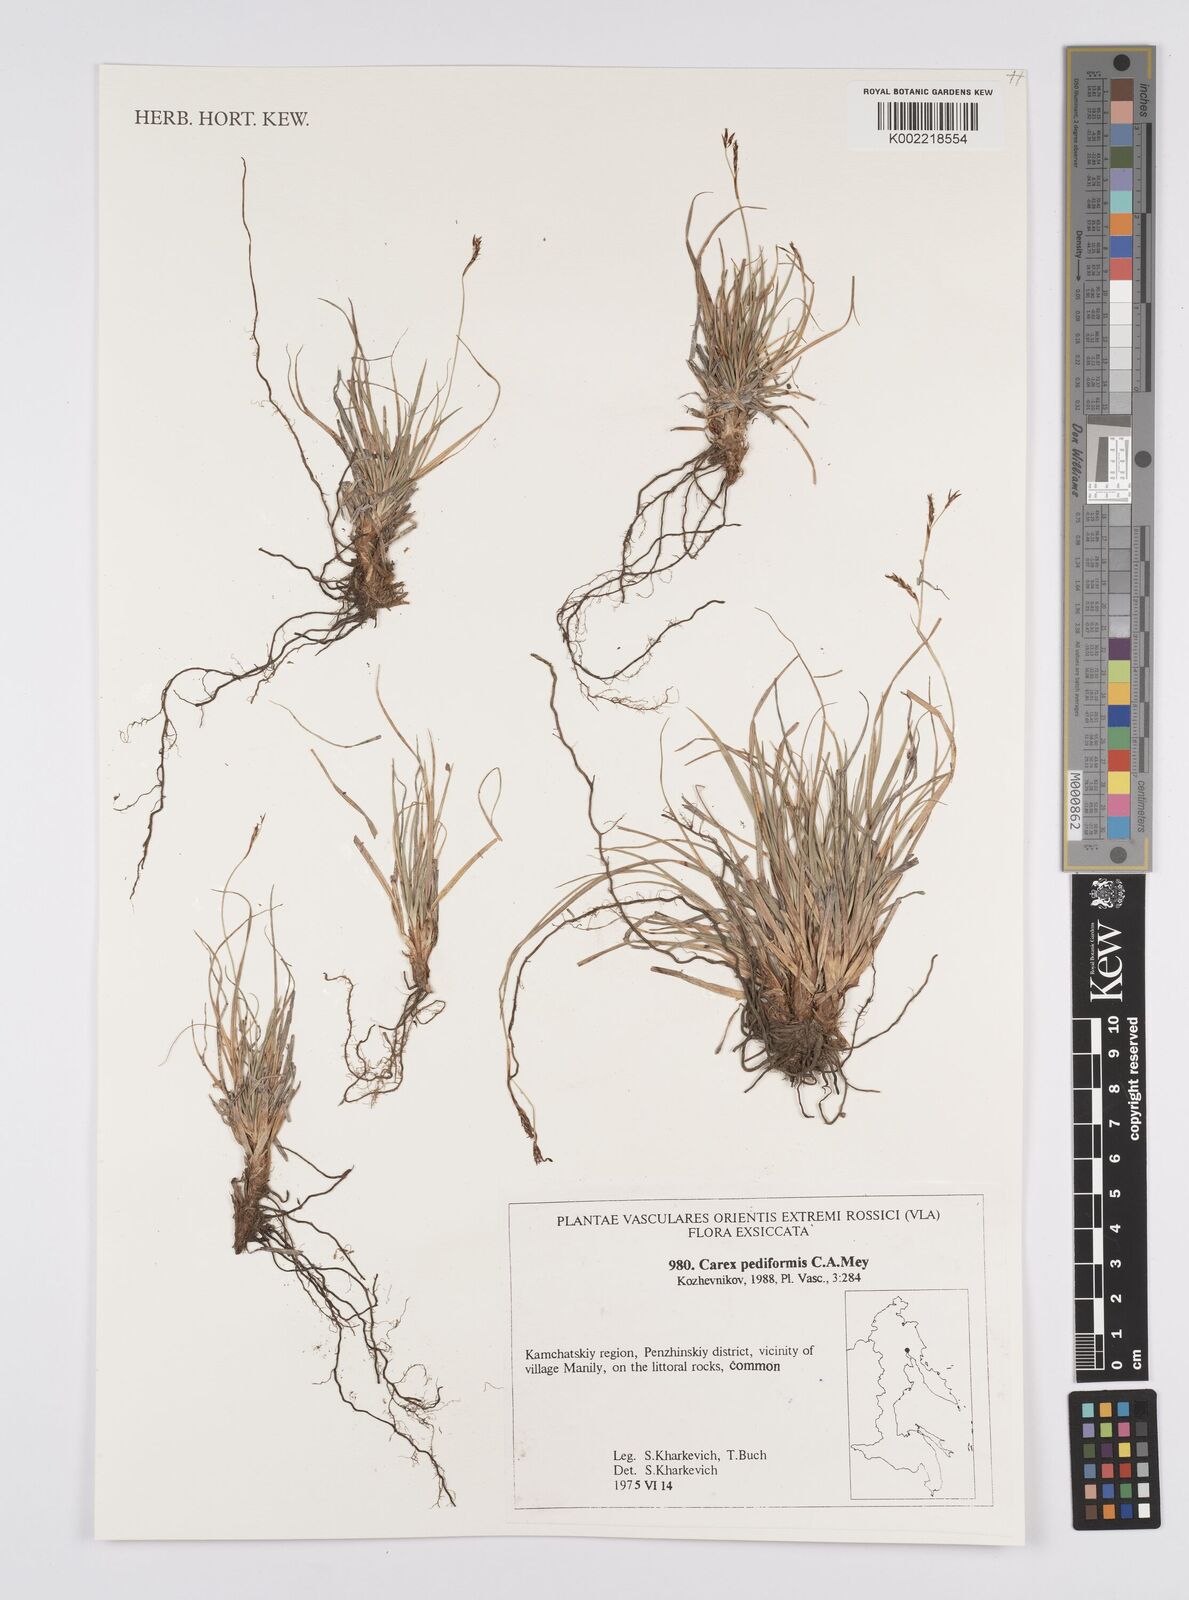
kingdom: Plantae
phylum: Tracheophyta
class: Liliopsida
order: Poales
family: Cyperaceae
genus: Carex
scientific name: Carex pediformis
